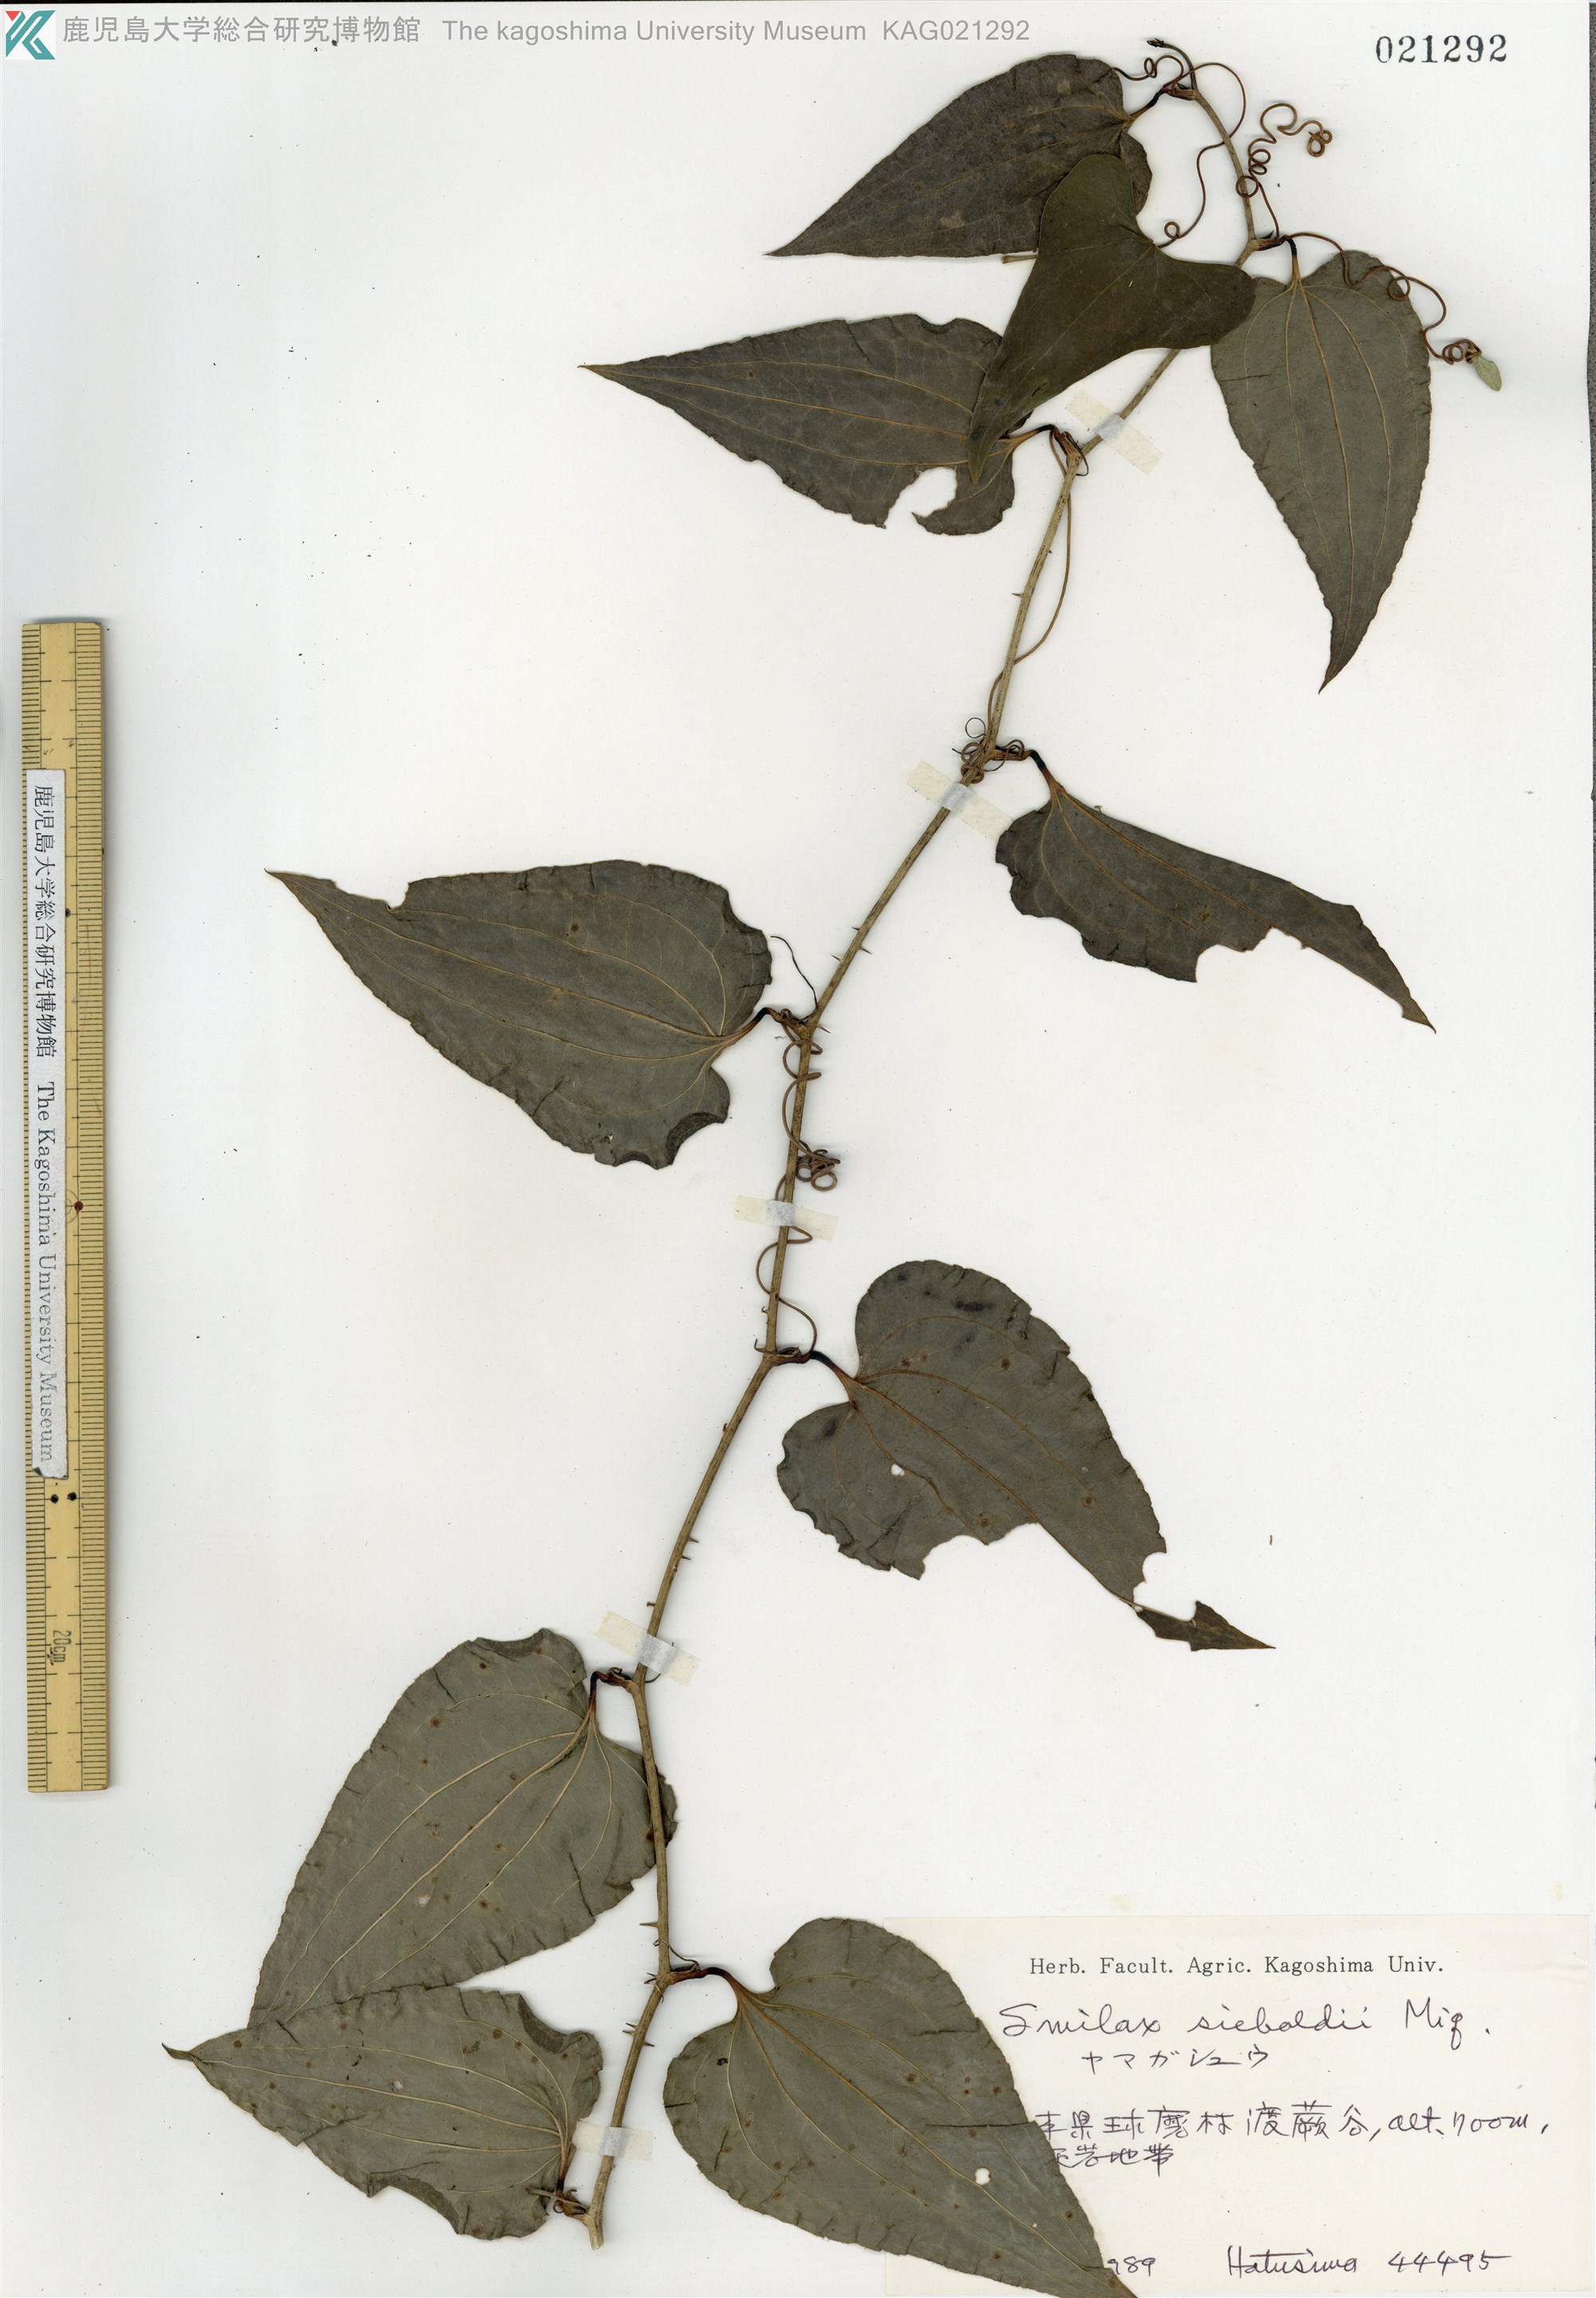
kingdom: Plantae
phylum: Tracheophyta
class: Liliopsida
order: Liliales
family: Smilacaceae
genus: Smilax
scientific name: Smilax sieboldii
